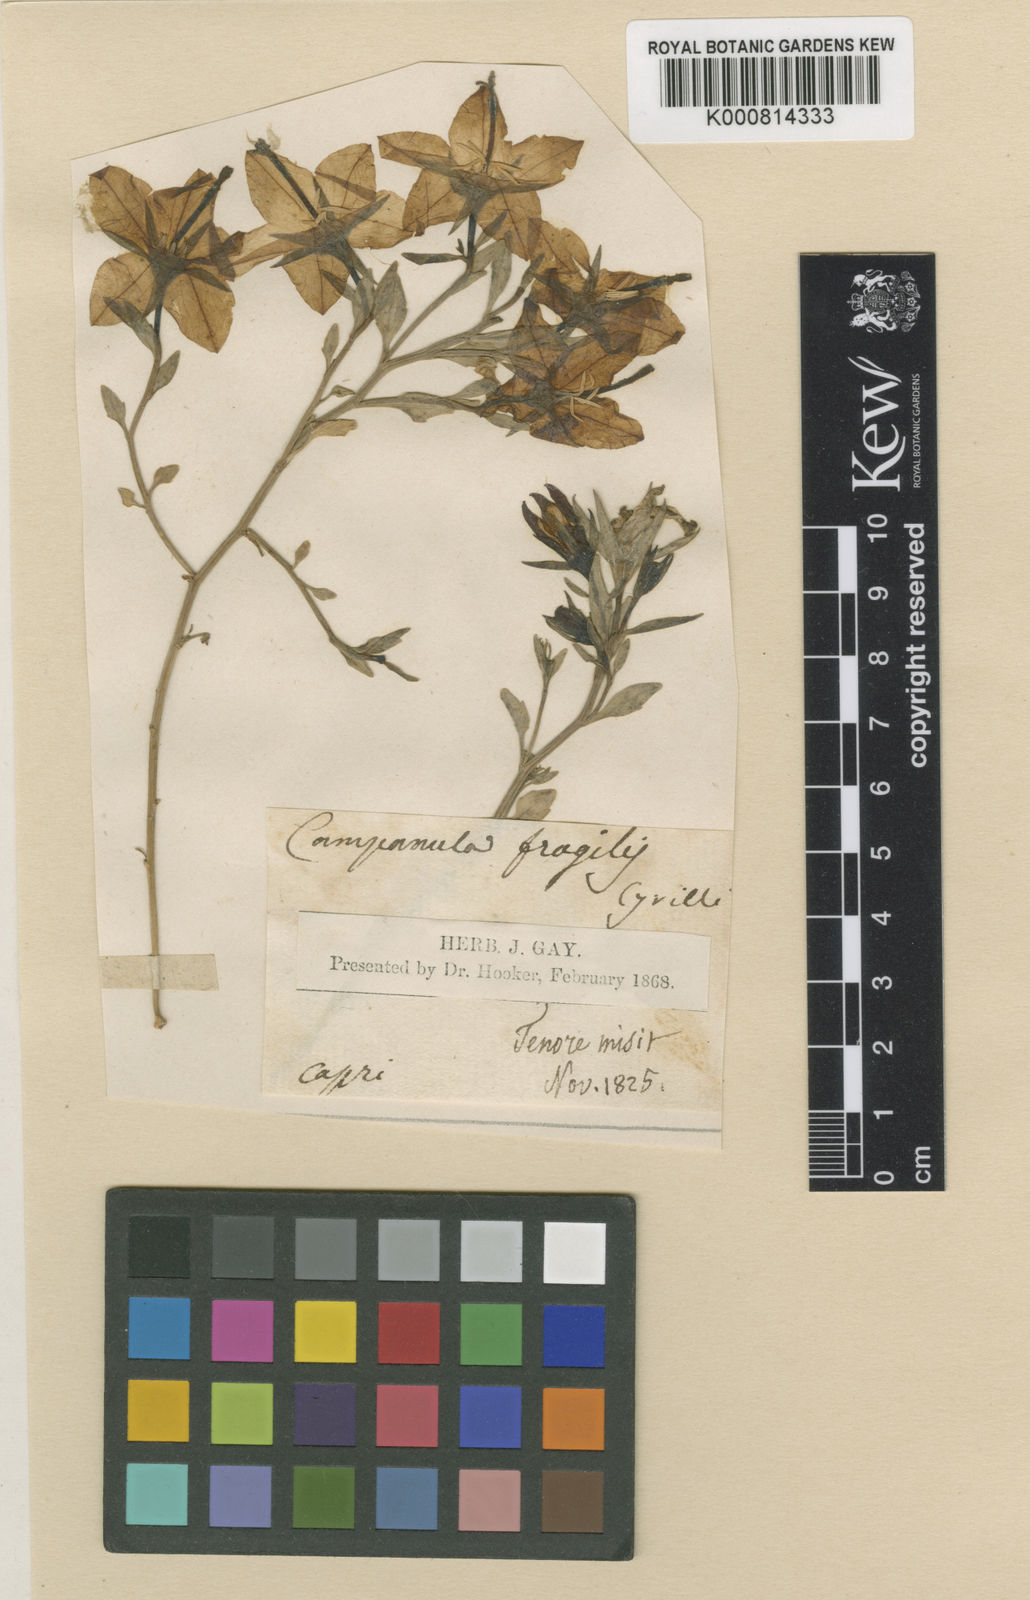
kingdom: Plantae
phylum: Tracheophyta
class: Magnoliopsida
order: Asterales
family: Campanulaceae
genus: Campanula
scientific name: Campanula fragilis
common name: Italian bellflower
